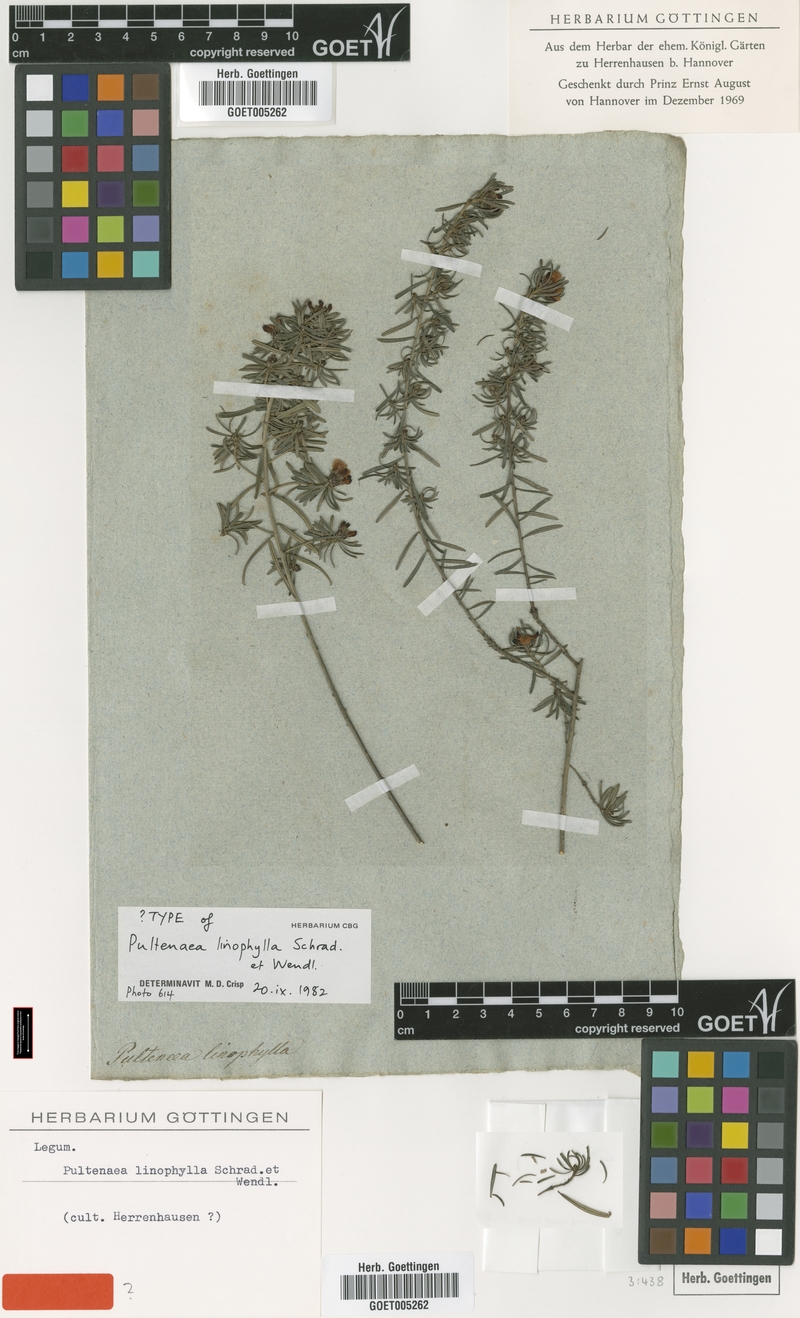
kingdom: Plantae
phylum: Tracheophyta
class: Magnoliopsida
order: Fabales
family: Fabaceae
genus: Pultenaea
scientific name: Pultenaea linophylla
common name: Halo bush-pea
